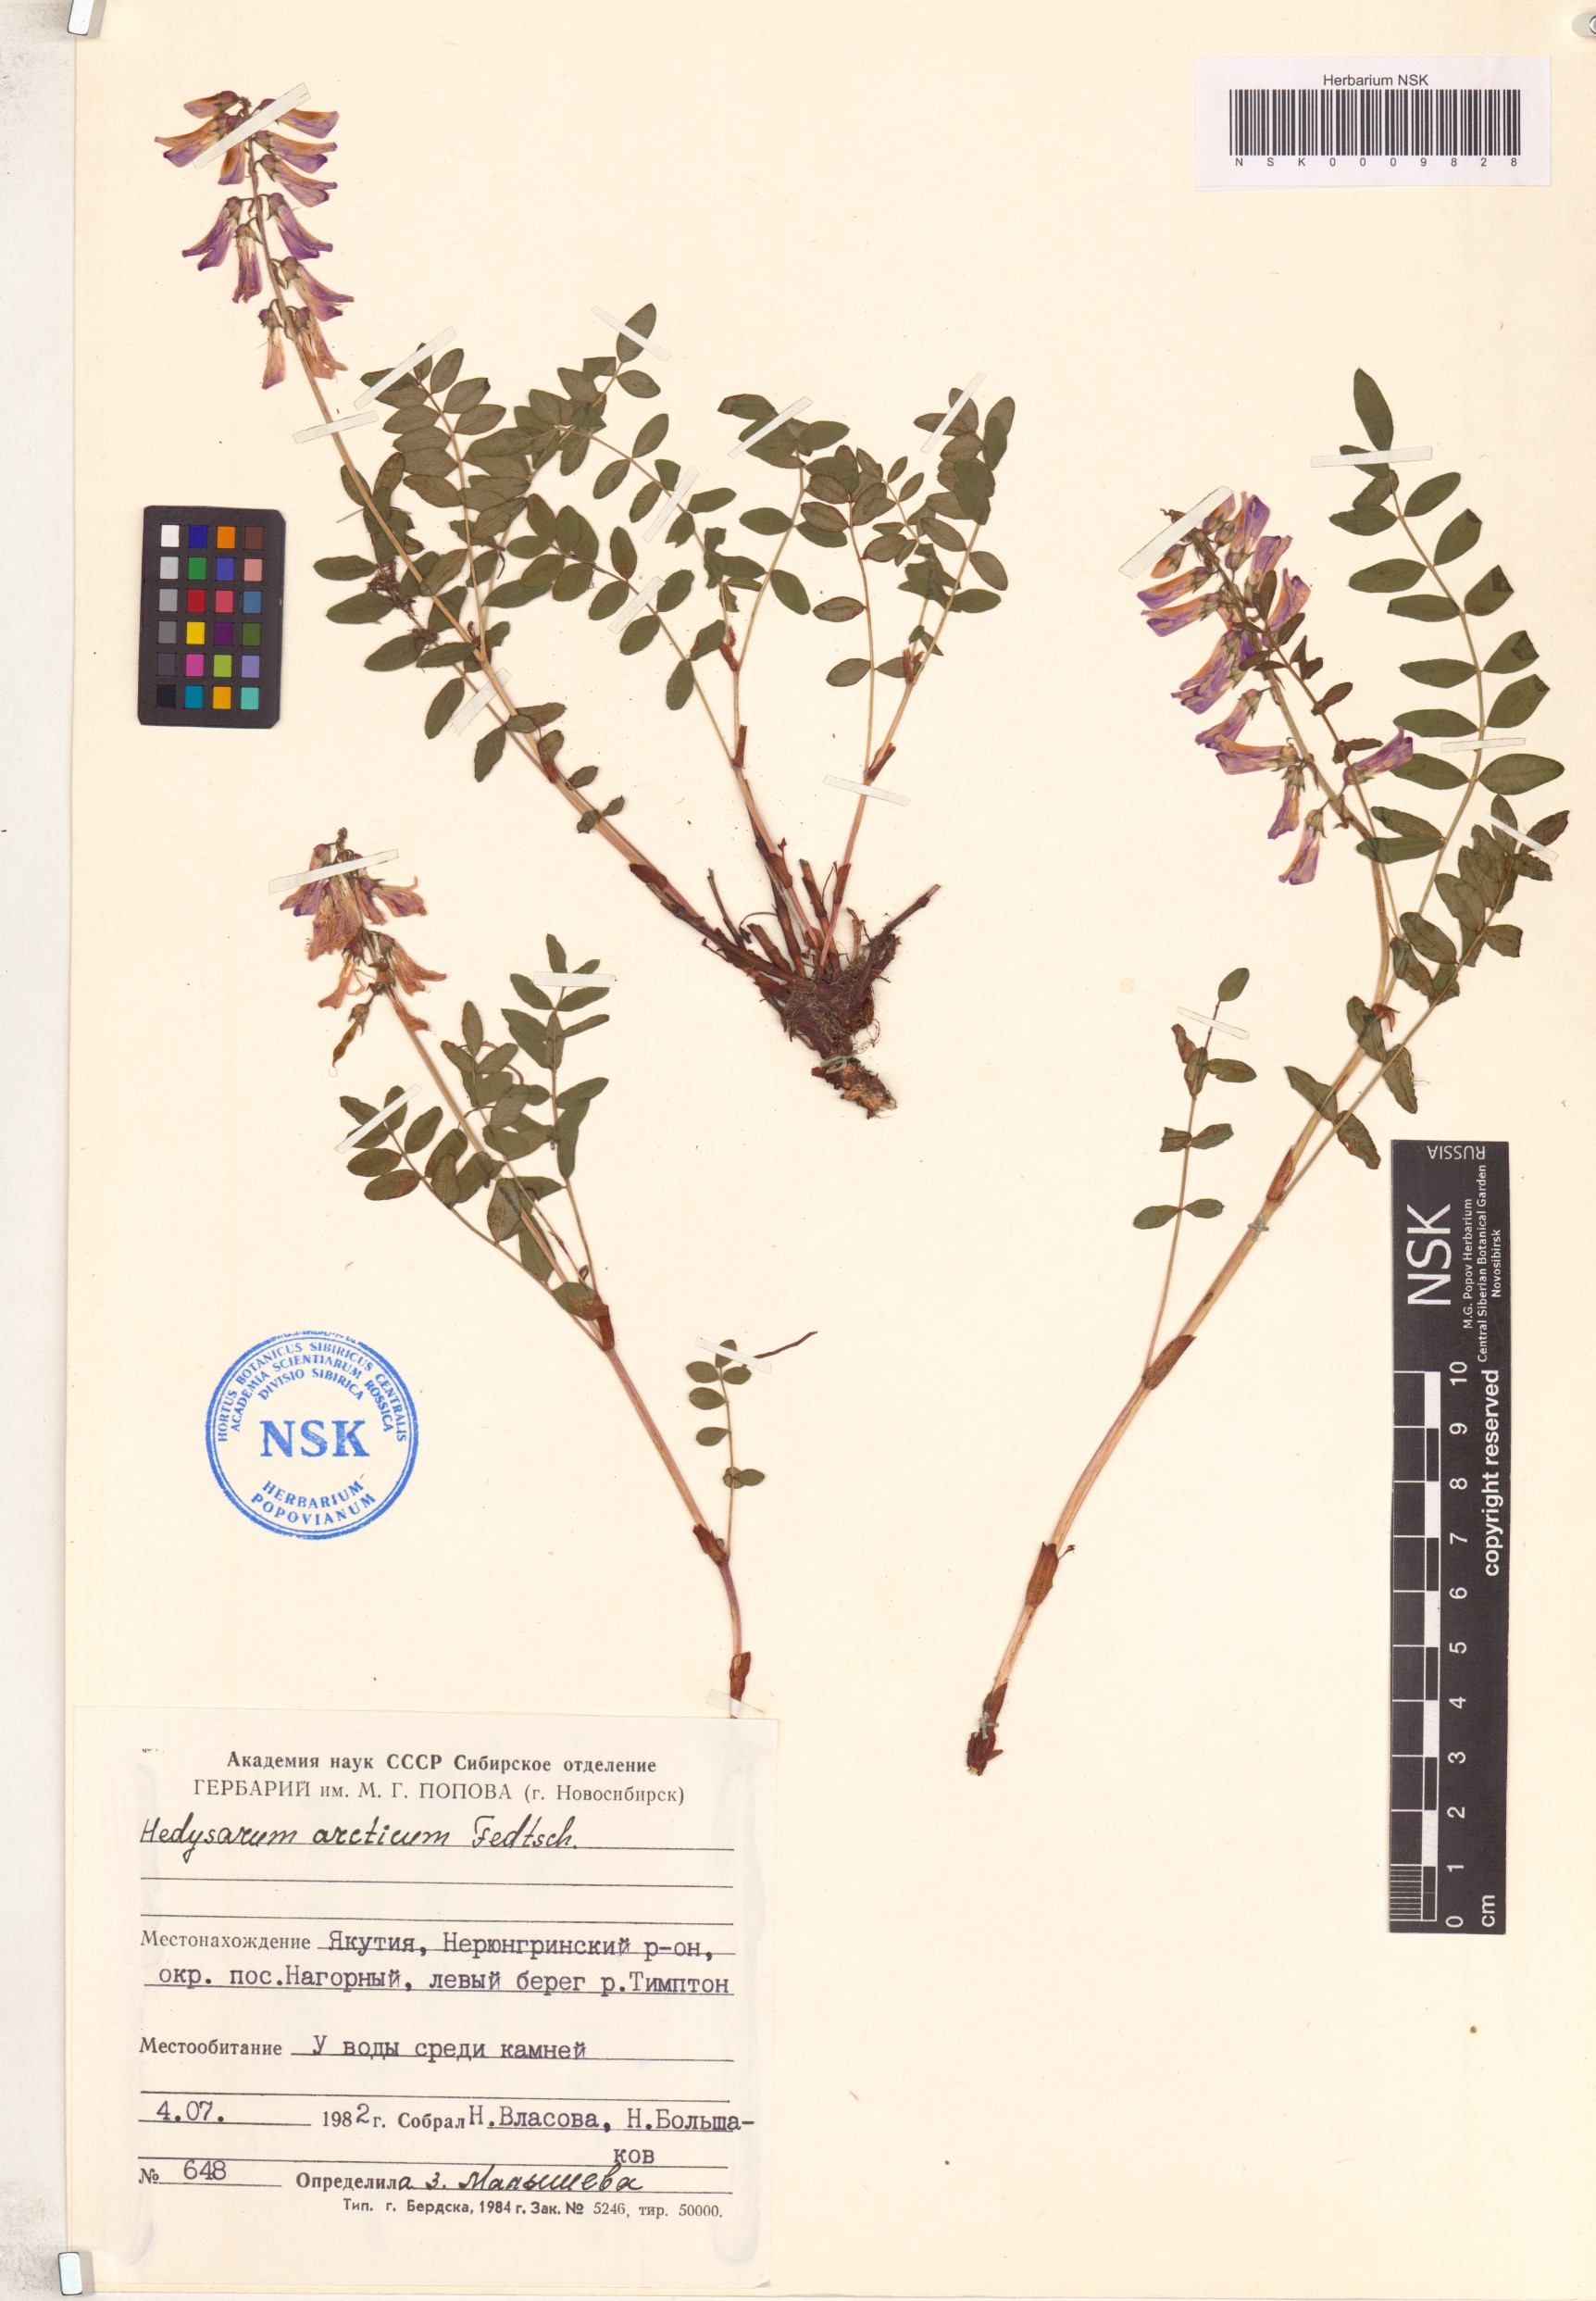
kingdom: Plantae
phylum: Tracheophyta
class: Magnoliopsida
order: Fabales
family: Fabaceae
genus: Hedysarum
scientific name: Hedysarum hedysaroides
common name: Alpine french-honeysuckle
